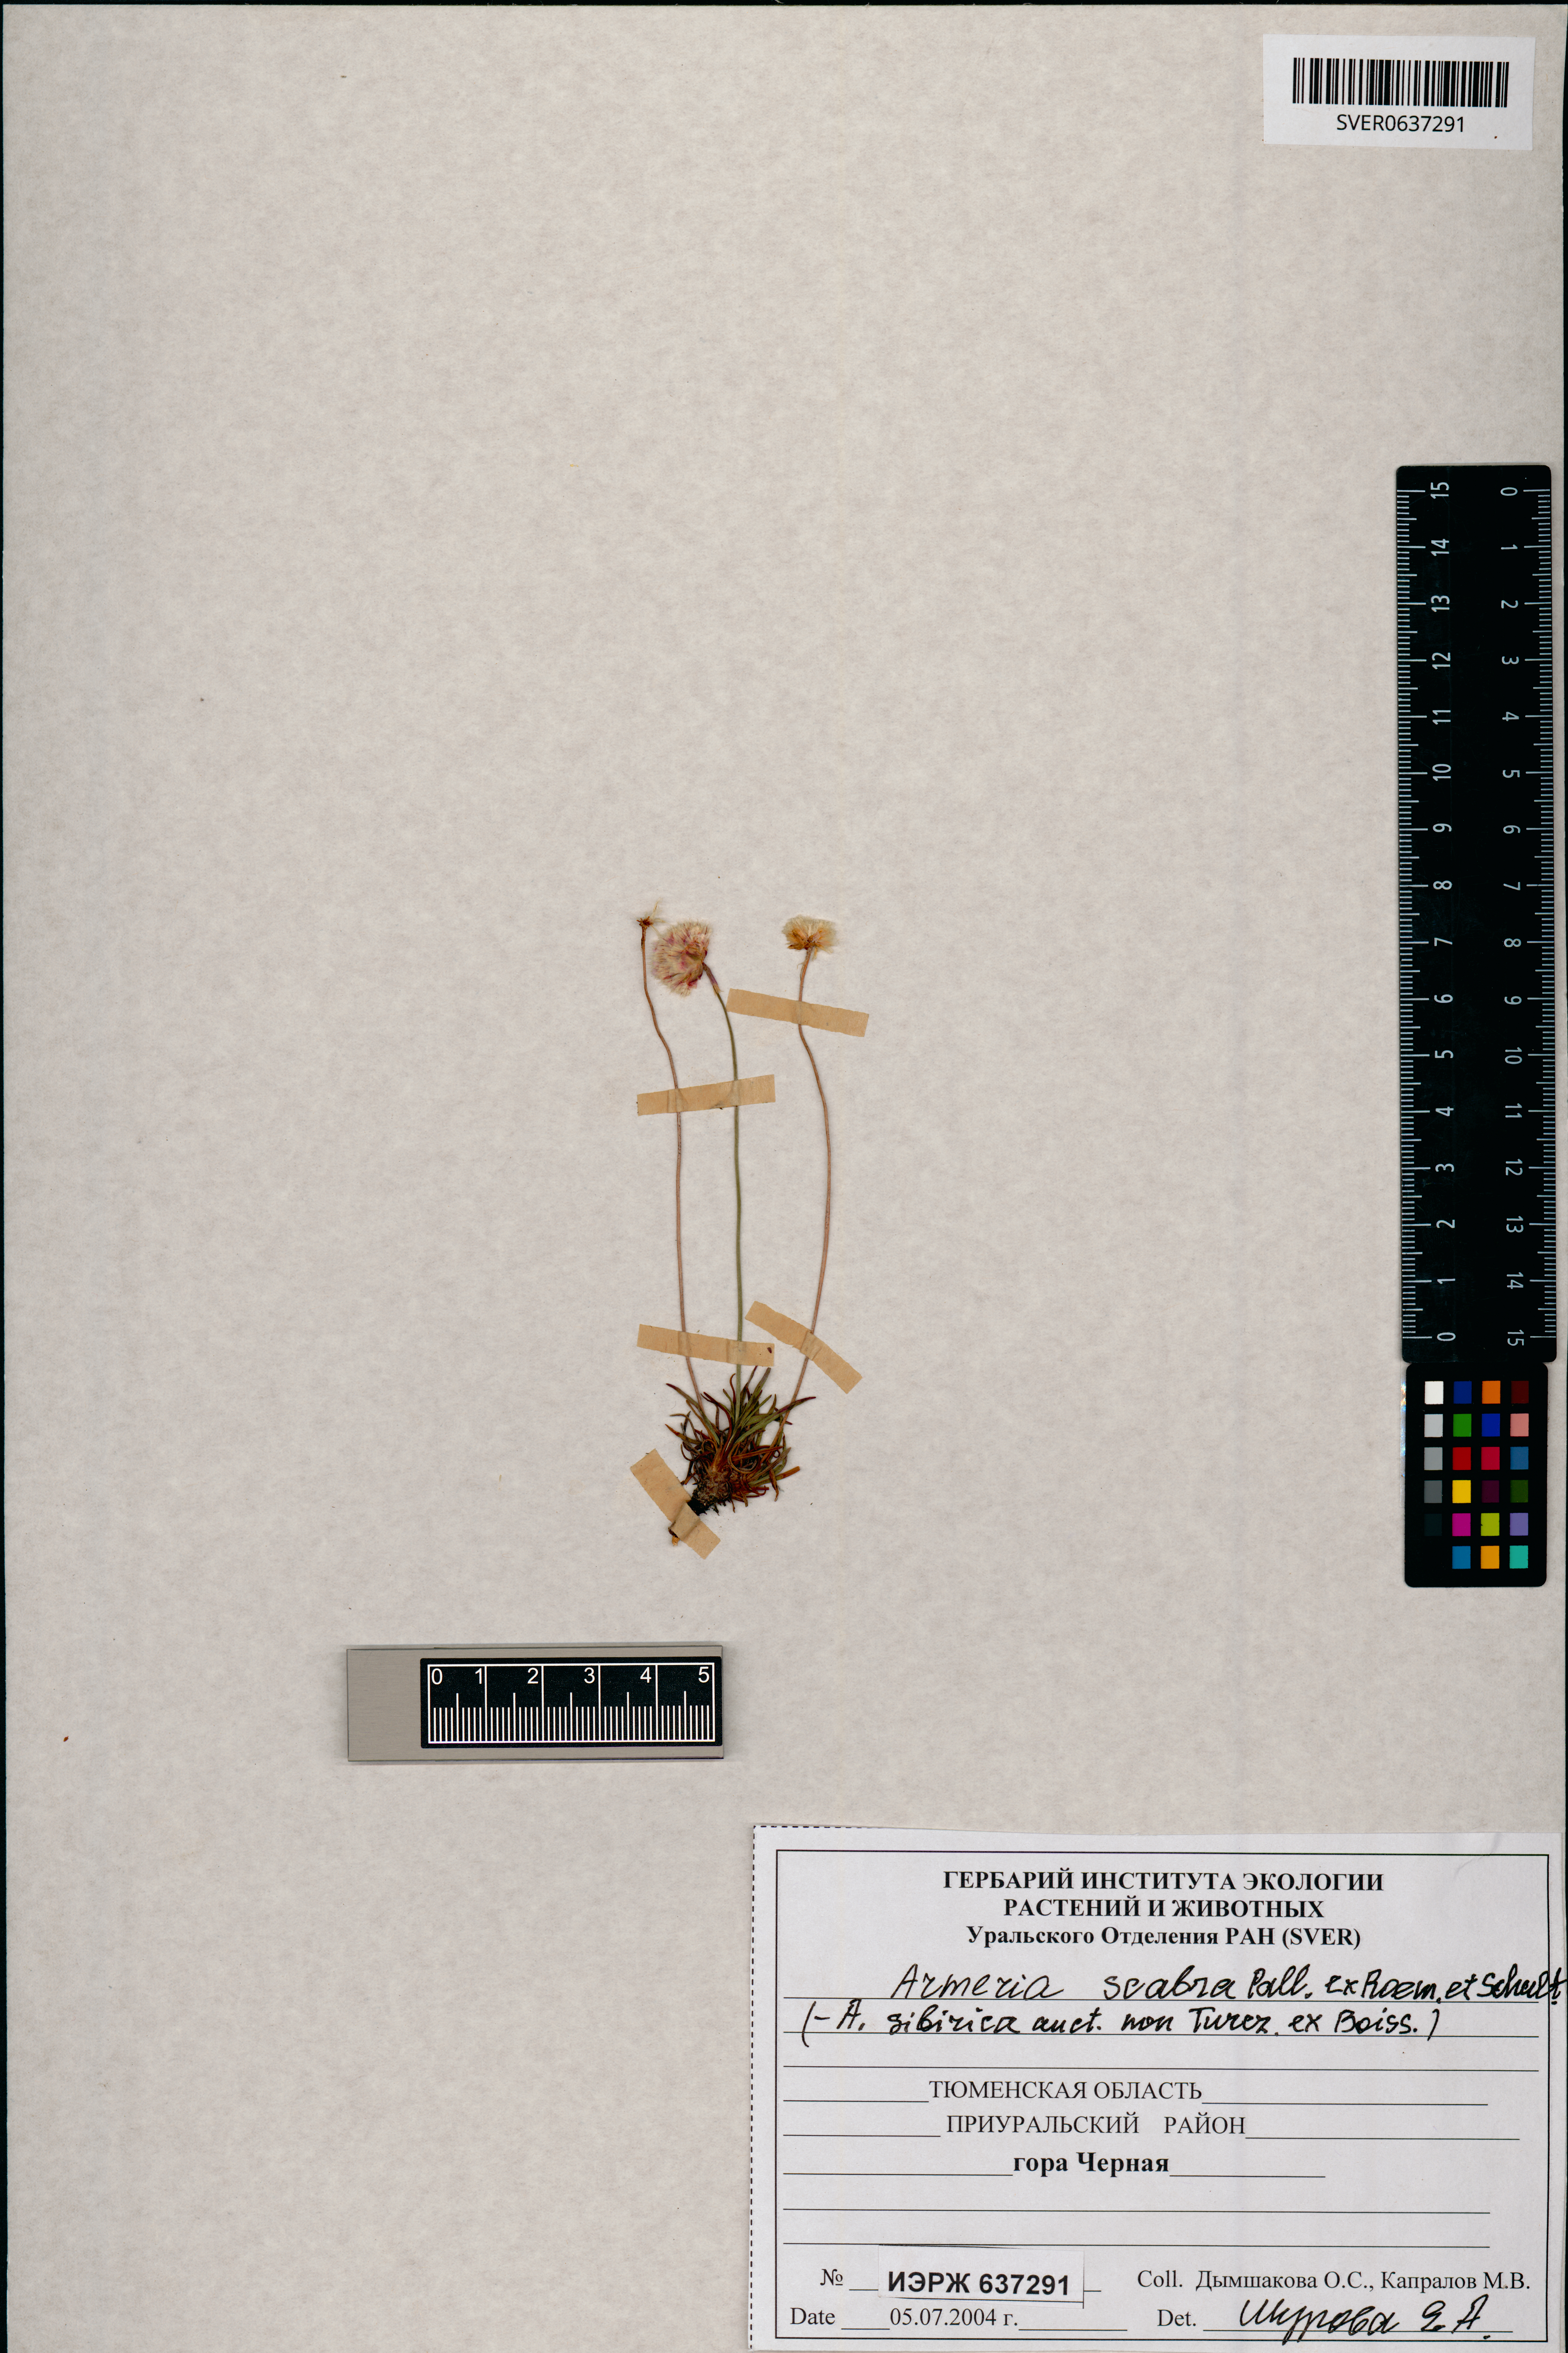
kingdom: Plantae
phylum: Tracheophyta
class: Magnoliopsida
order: Caryophyllales
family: Plumbaginaceae
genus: Armeria
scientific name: Armeria maritima
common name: Thrift
